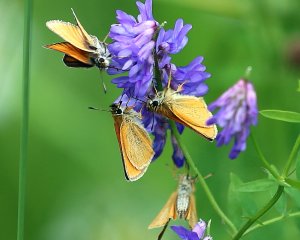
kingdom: Animalia
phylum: Arthropoda
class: Insecta
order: Lepidoptera
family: Hesperiidae
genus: Thymelicus
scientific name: Thymelicus lineola
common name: European Skipper
